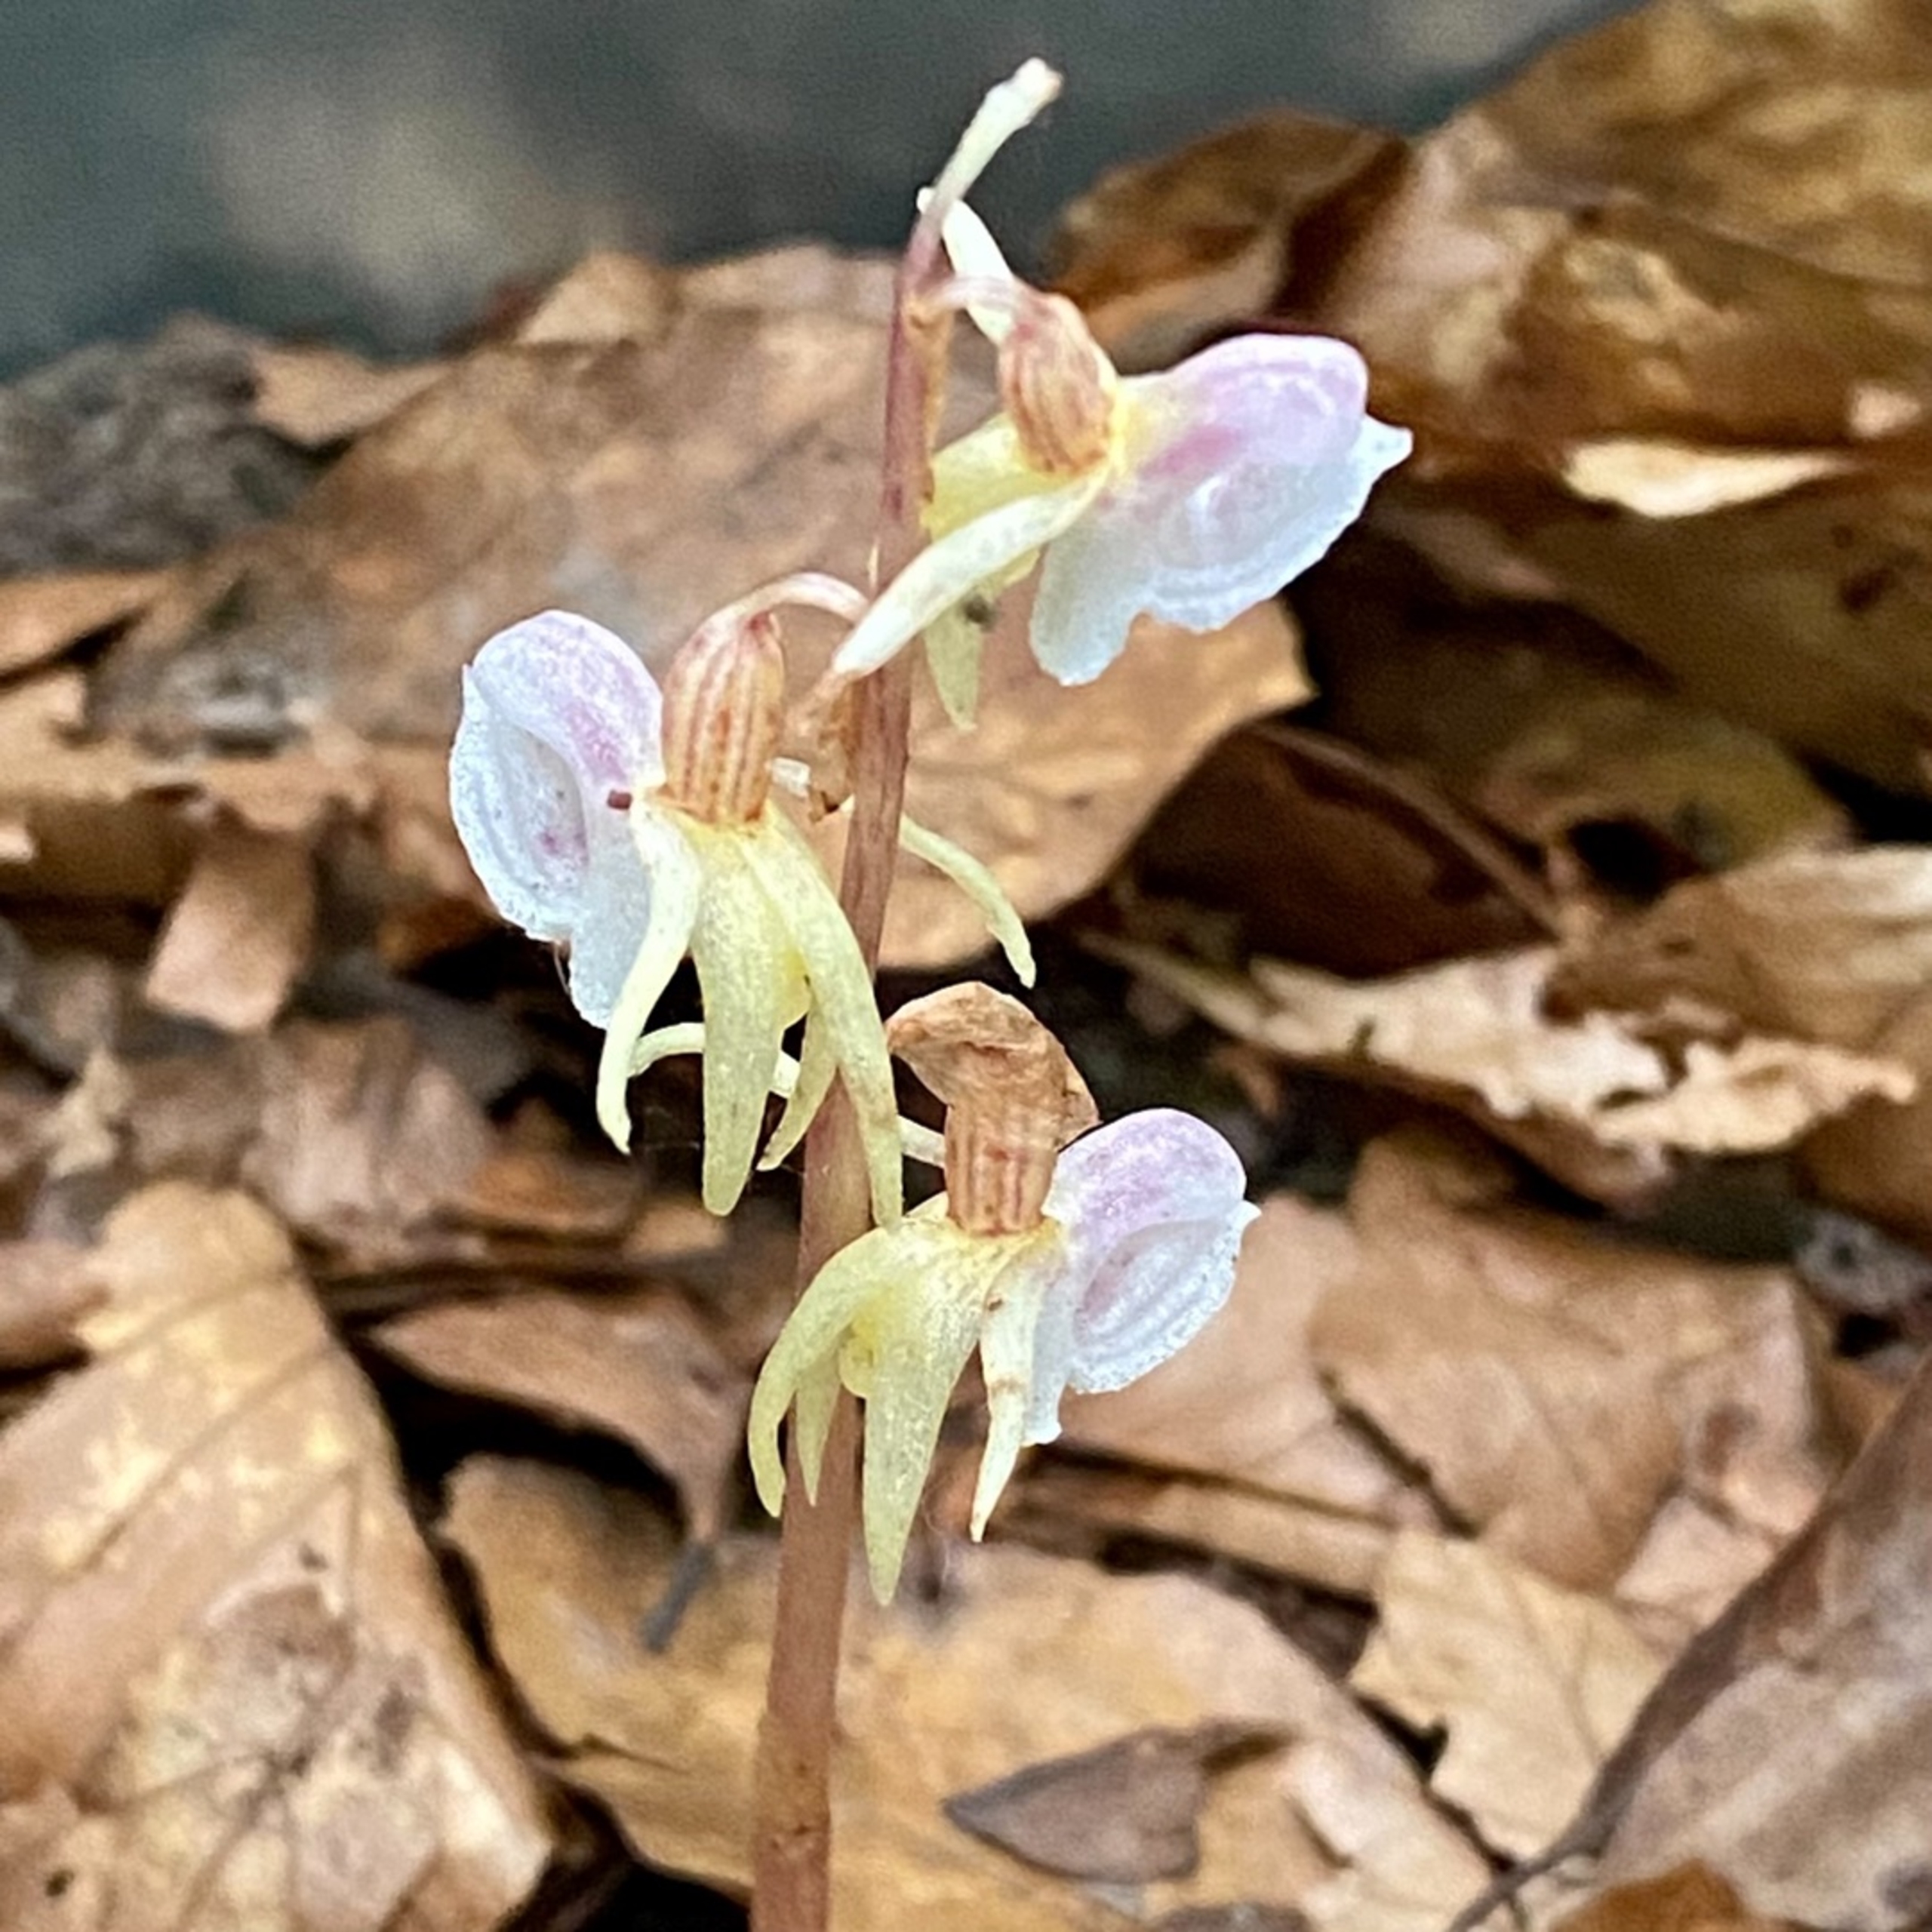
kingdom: Plantae
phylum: Tracheophyta
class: Liliopsida
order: Asparagales
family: Orchidaceae
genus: Epipogium
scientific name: Epipogium aphyllum
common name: Knælæbe
